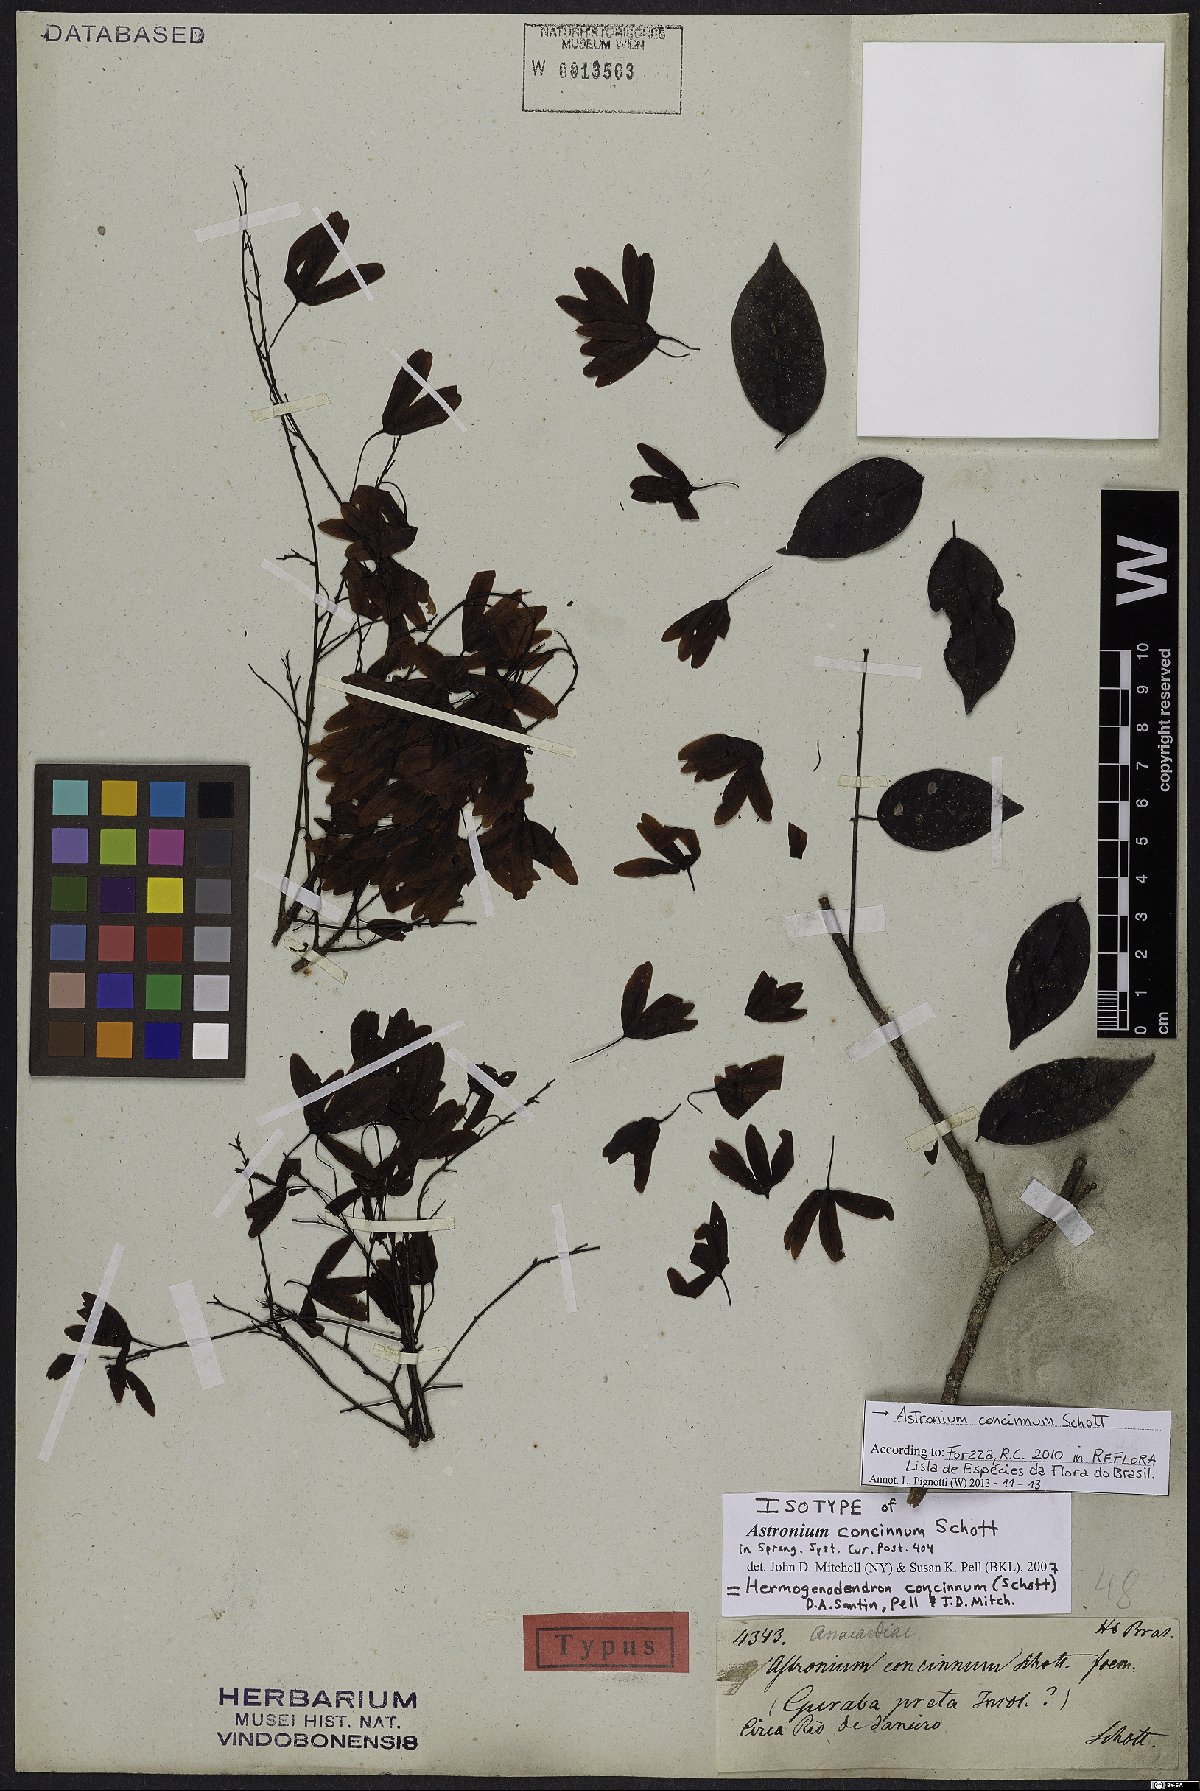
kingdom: Plantae
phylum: Tracheophyta
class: Magnoliopsida
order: Sapindales
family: Anacardiaceae
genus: Astronium
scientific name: Astronium concinnum
